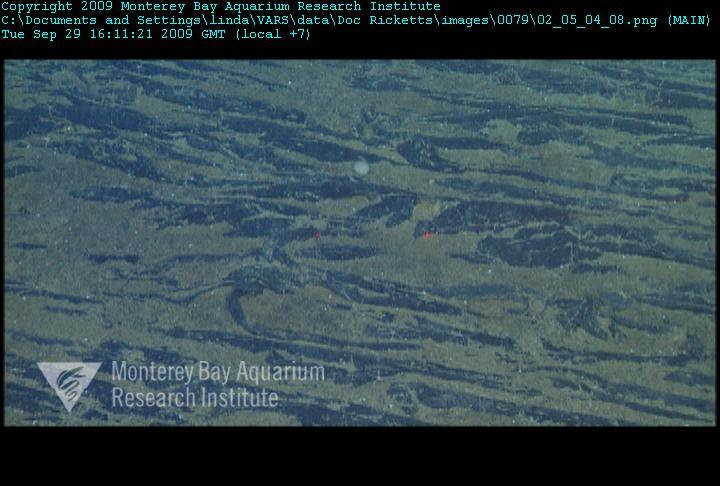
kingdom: Animalia
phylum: Porifera
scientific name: Porifera
